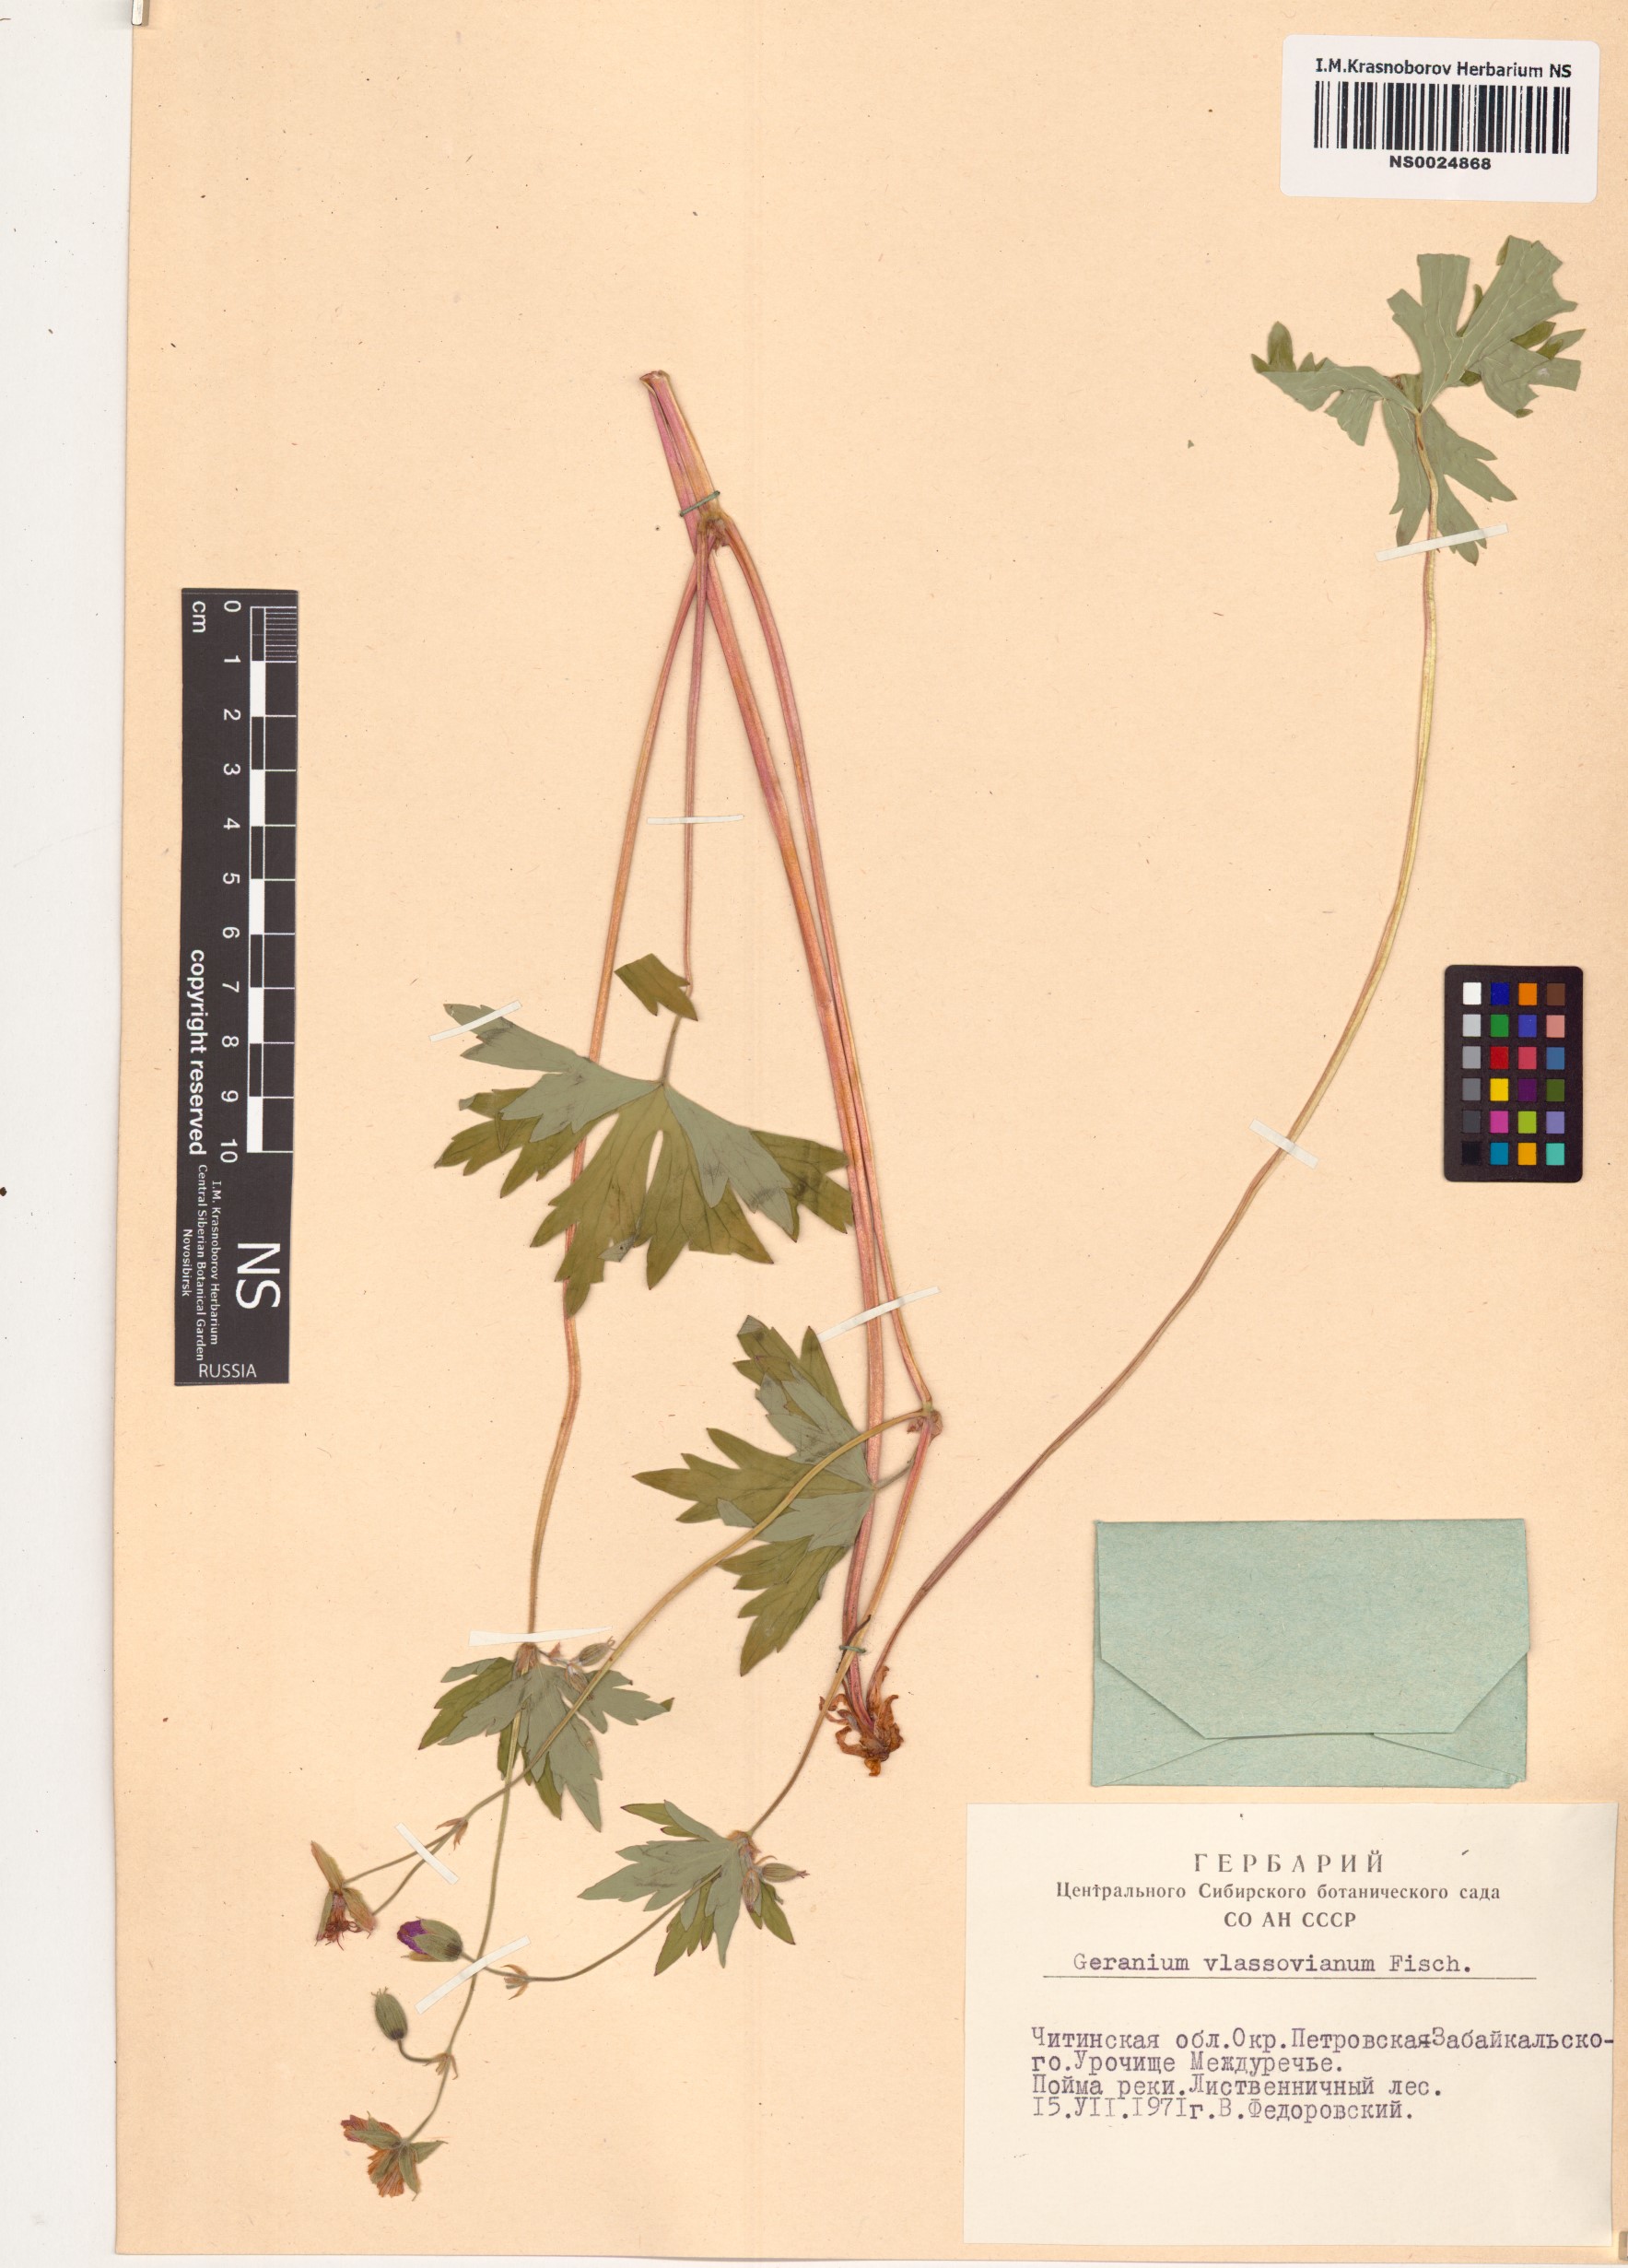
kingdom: Plantae
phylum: Tracheophyta
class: Magnoliopsida
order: Geraniales
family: Geraniaceae
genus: Geranium
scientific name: Geranium wlassovianum
